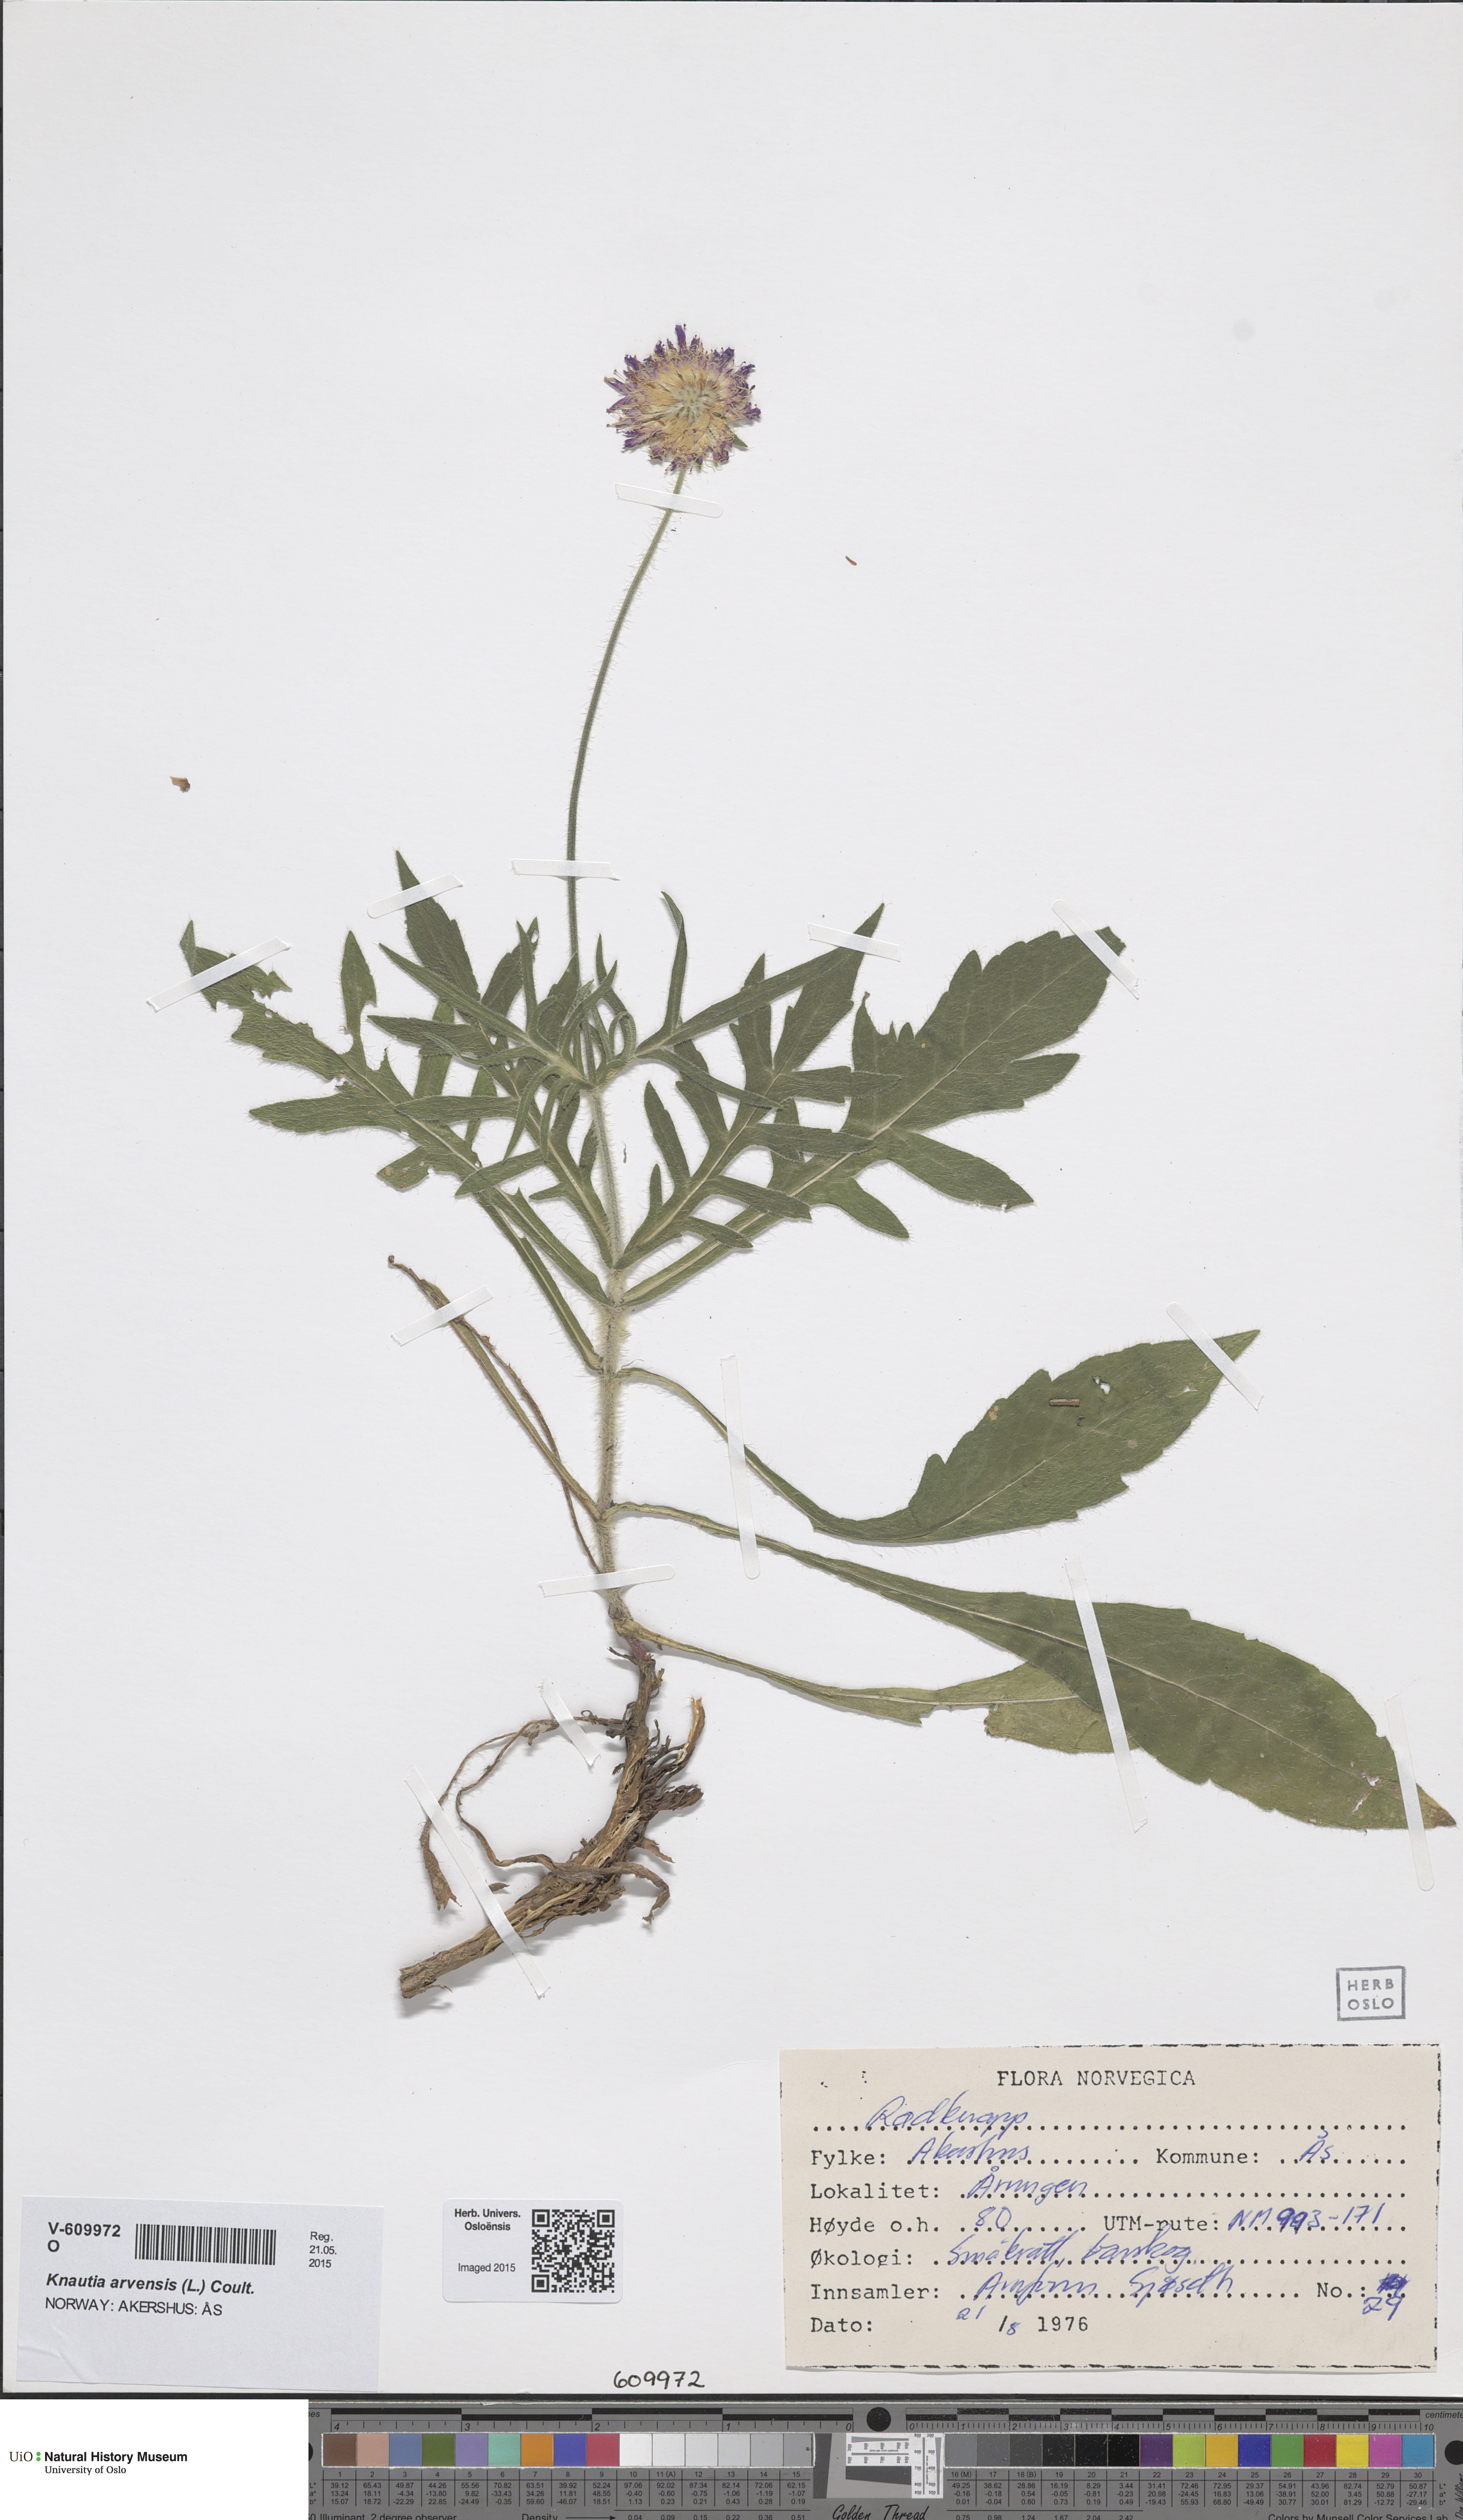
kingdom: Plantae
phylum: Tracheophyta
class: Magnoliopsida
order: Dipsacales
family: Caprifoliaceae
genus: Knautia
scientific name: Knautia arvensis
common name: Field scabiosa
